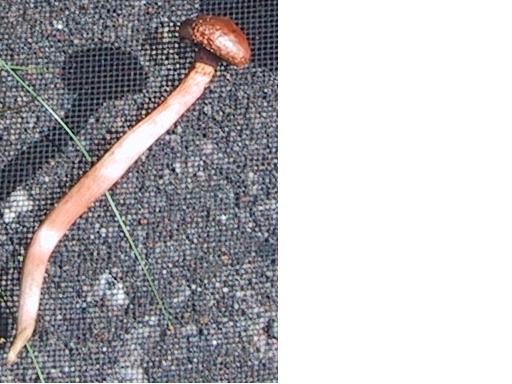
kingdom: Fungi
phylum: Basidiomycota
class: Agaricomycetes
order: Boletales
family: Gomphidiaceae
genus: Chroogomphus
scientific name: Chroogomphus rutilus
